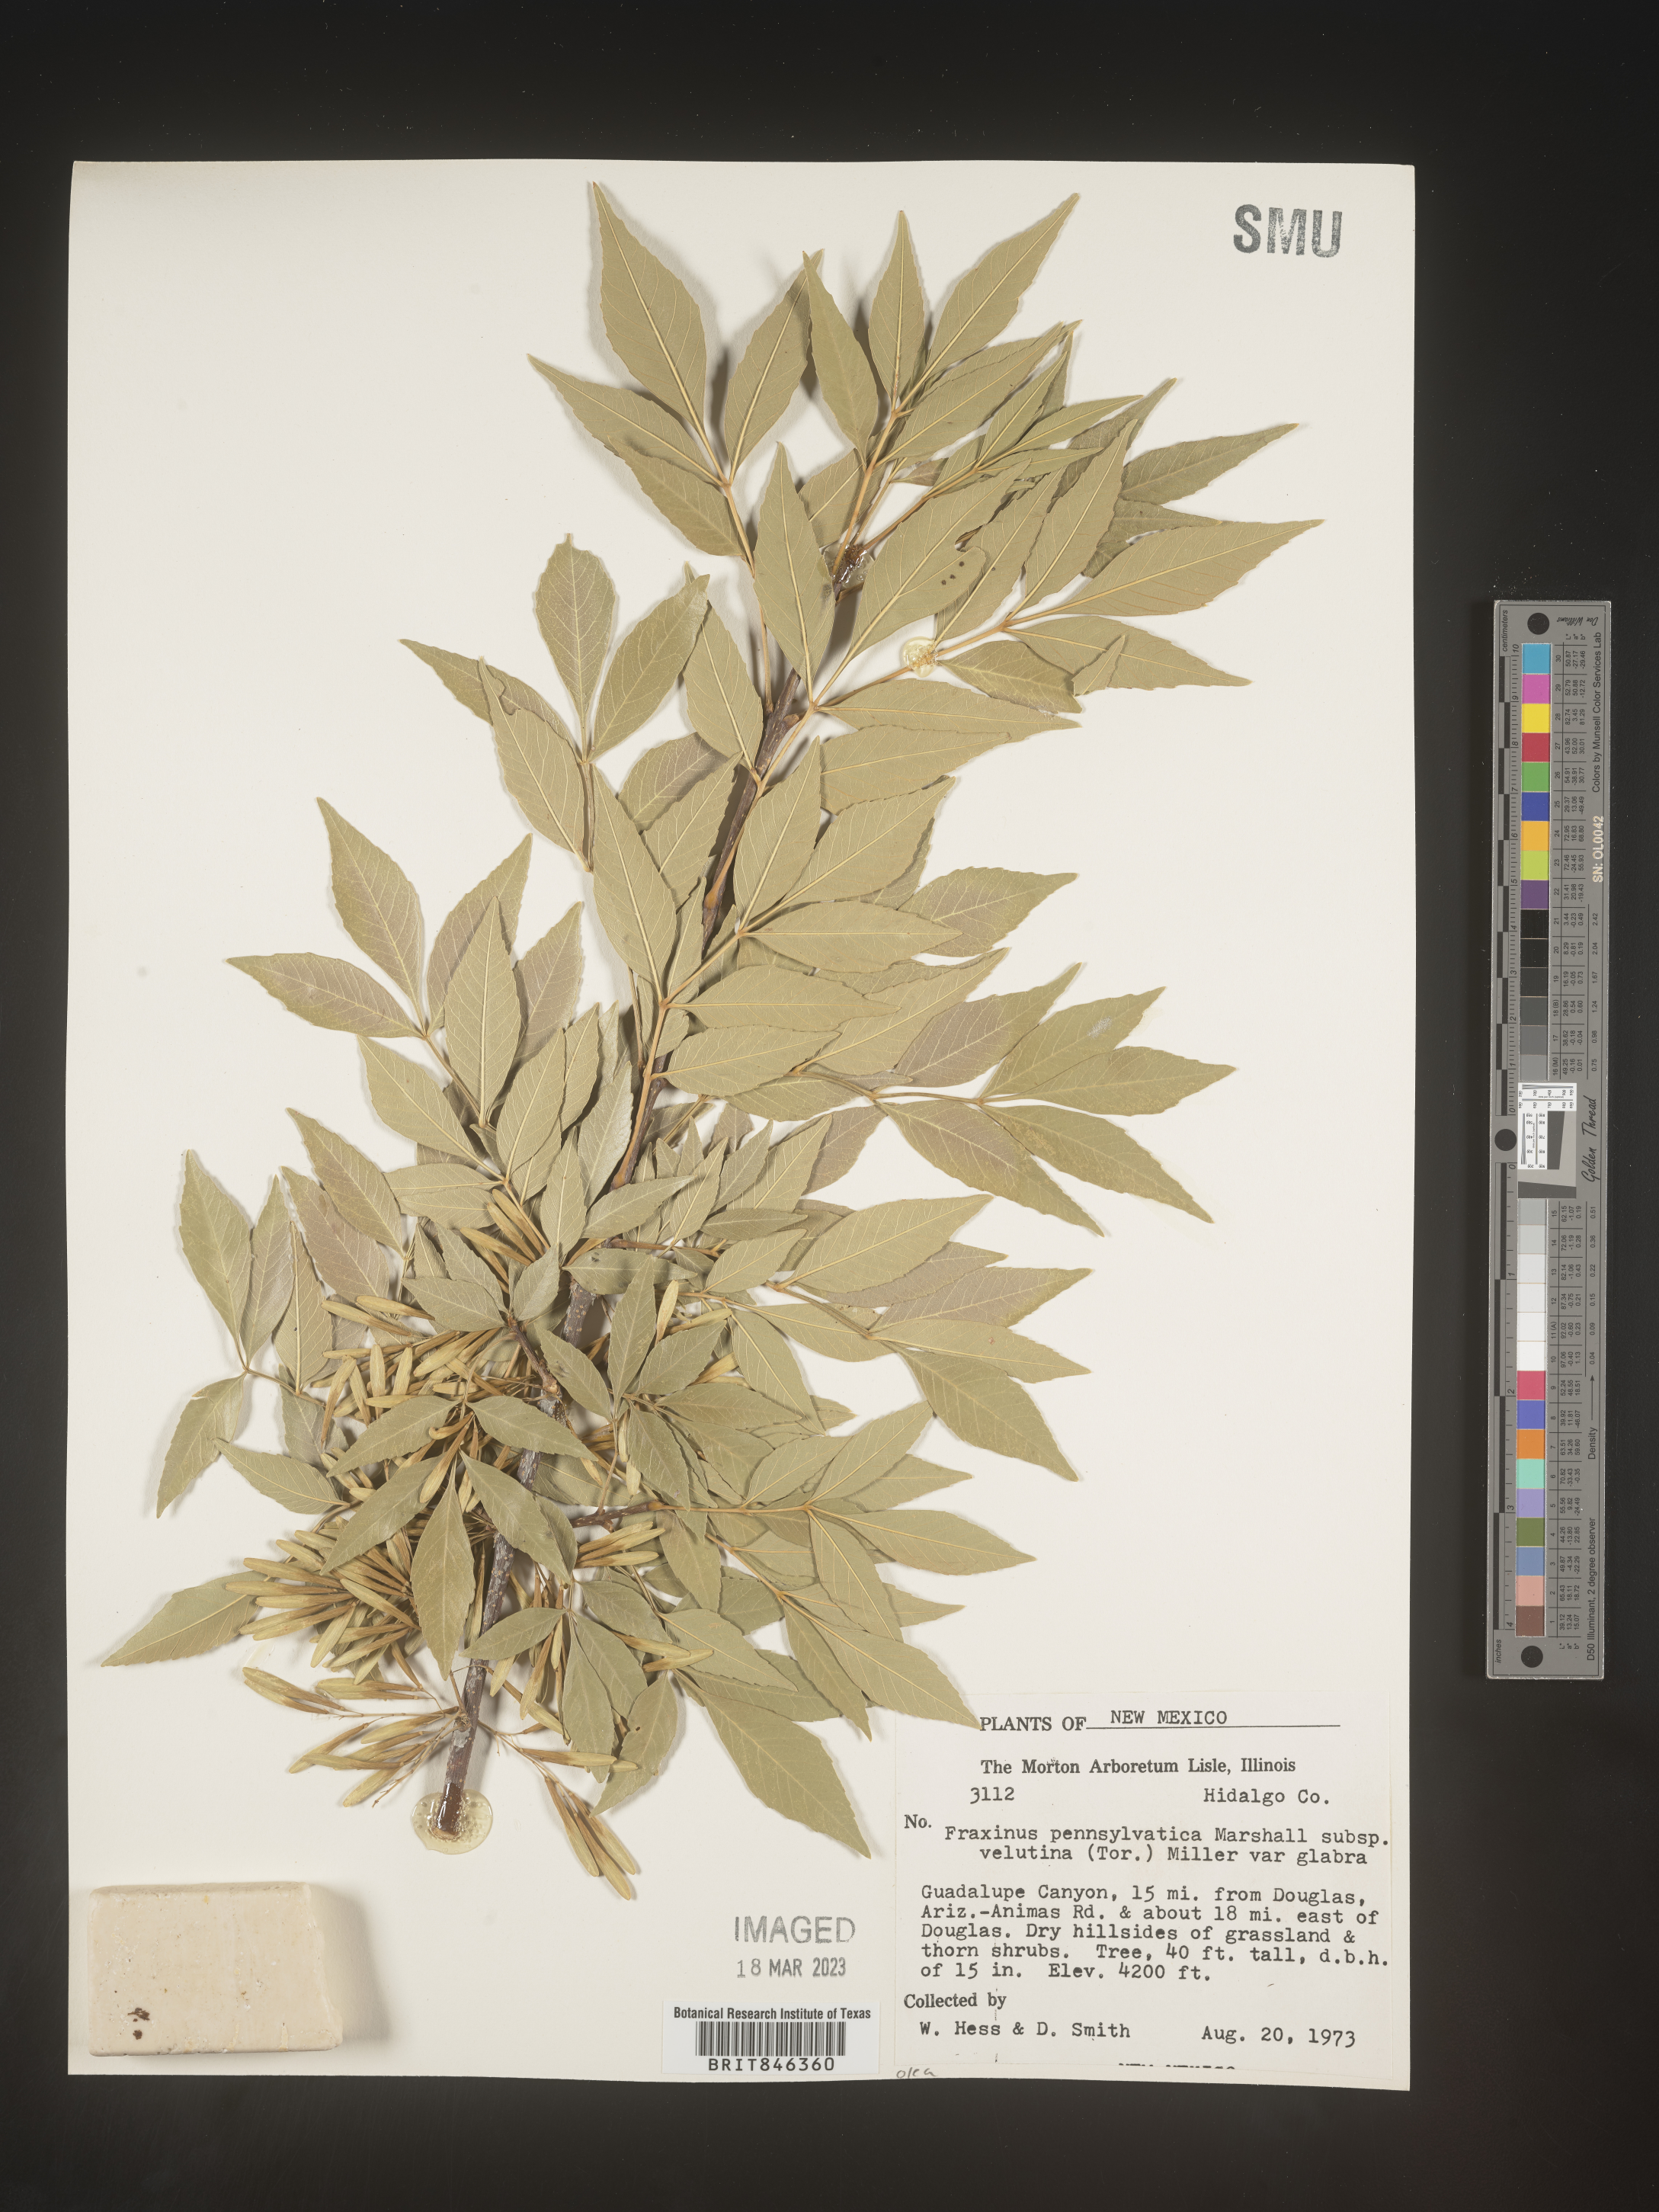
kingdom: Plantae
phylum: Tracheophyta
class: Magnoliopsida
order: Lamiales
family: Oleaceae
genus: Fraxinus
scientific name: Fraxinus velutina
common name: Arizon ash
